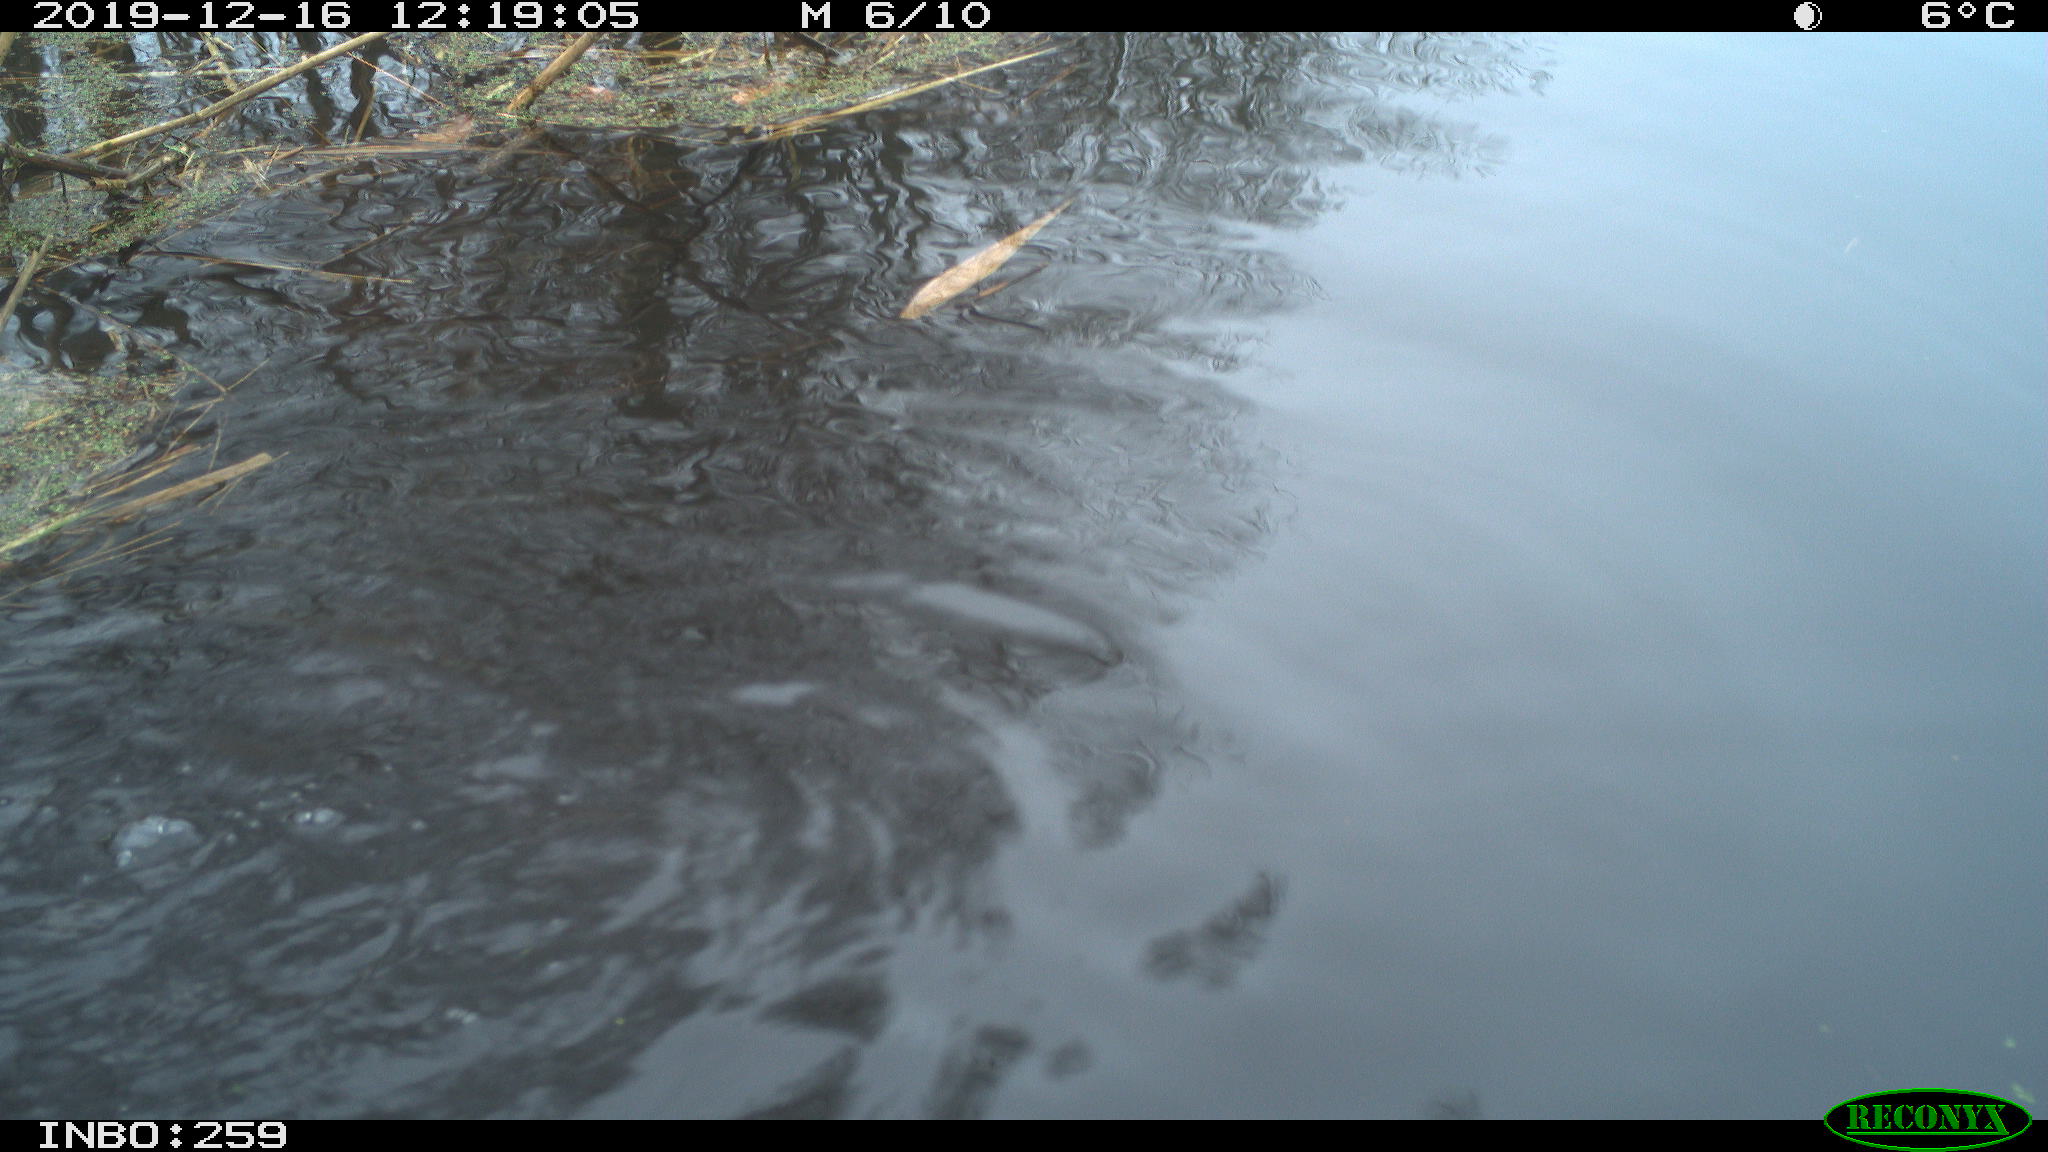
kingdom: Animalia
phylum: Chordata
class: Aves
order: Gruiformes
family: Rallidae
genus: Gallinula
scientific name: Gallinula chloropus
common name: Common moorhen
